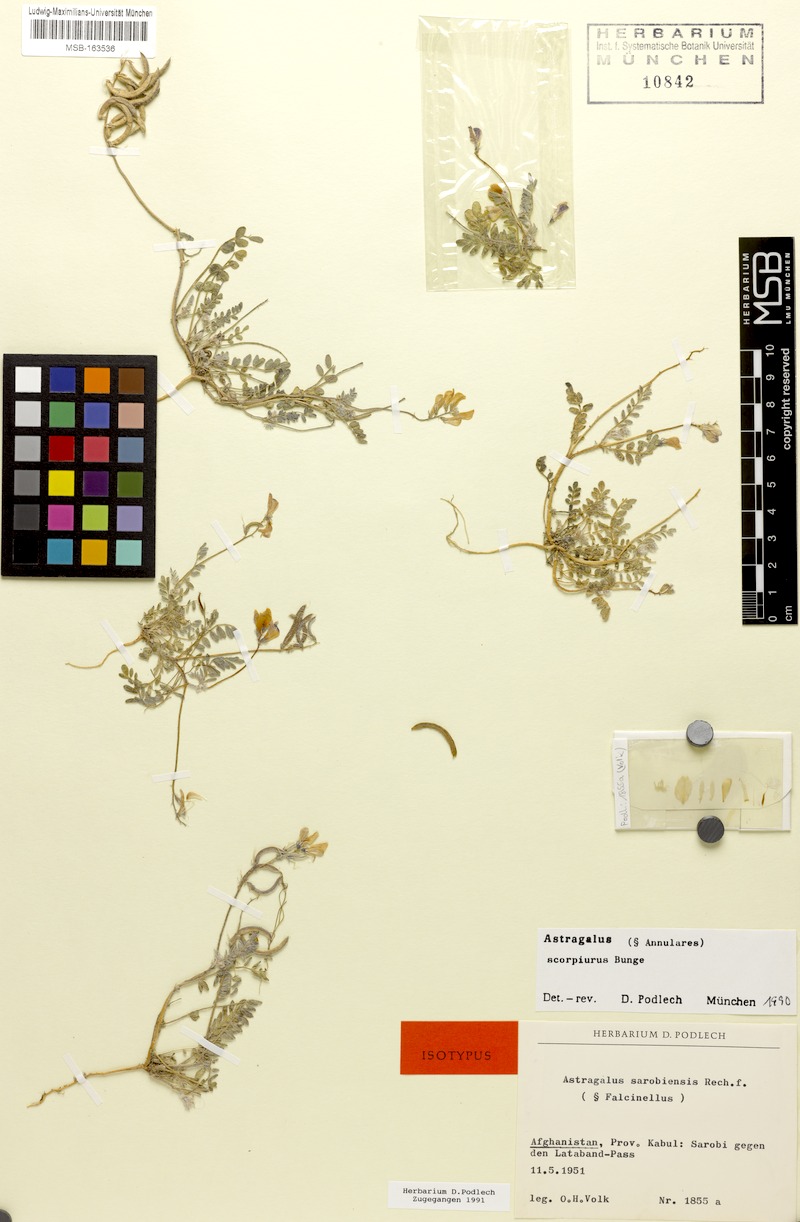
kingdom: Plantae
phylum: Tracheophyta
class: Magnoliopsida
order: Fabales
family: Fabaceae
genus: Astragalus
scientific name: Astragalus scorpiurus
